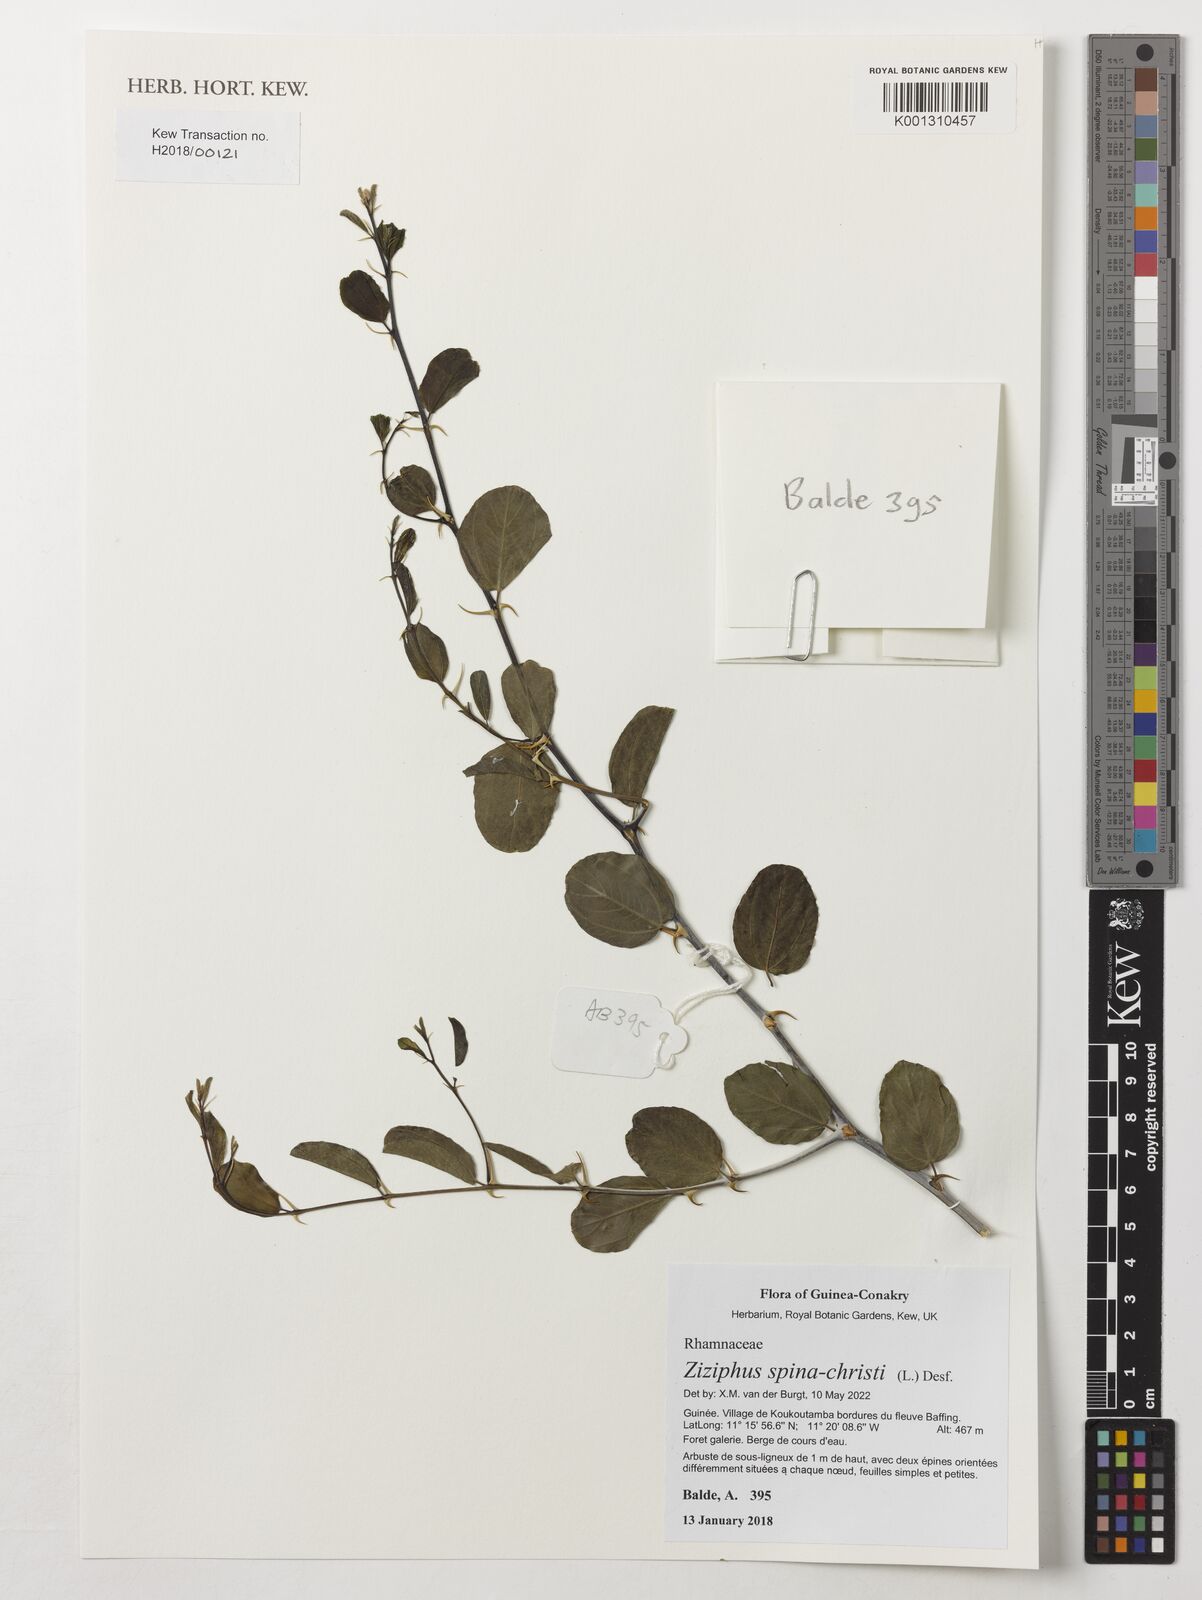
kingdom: Plantae
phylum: Tracheophyta
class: Magnoliopsida
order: Rosales
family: Rhamnaceae
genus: Ziziphus
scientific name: Ziziphus spina-christi
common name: Syrian christ-thorn
